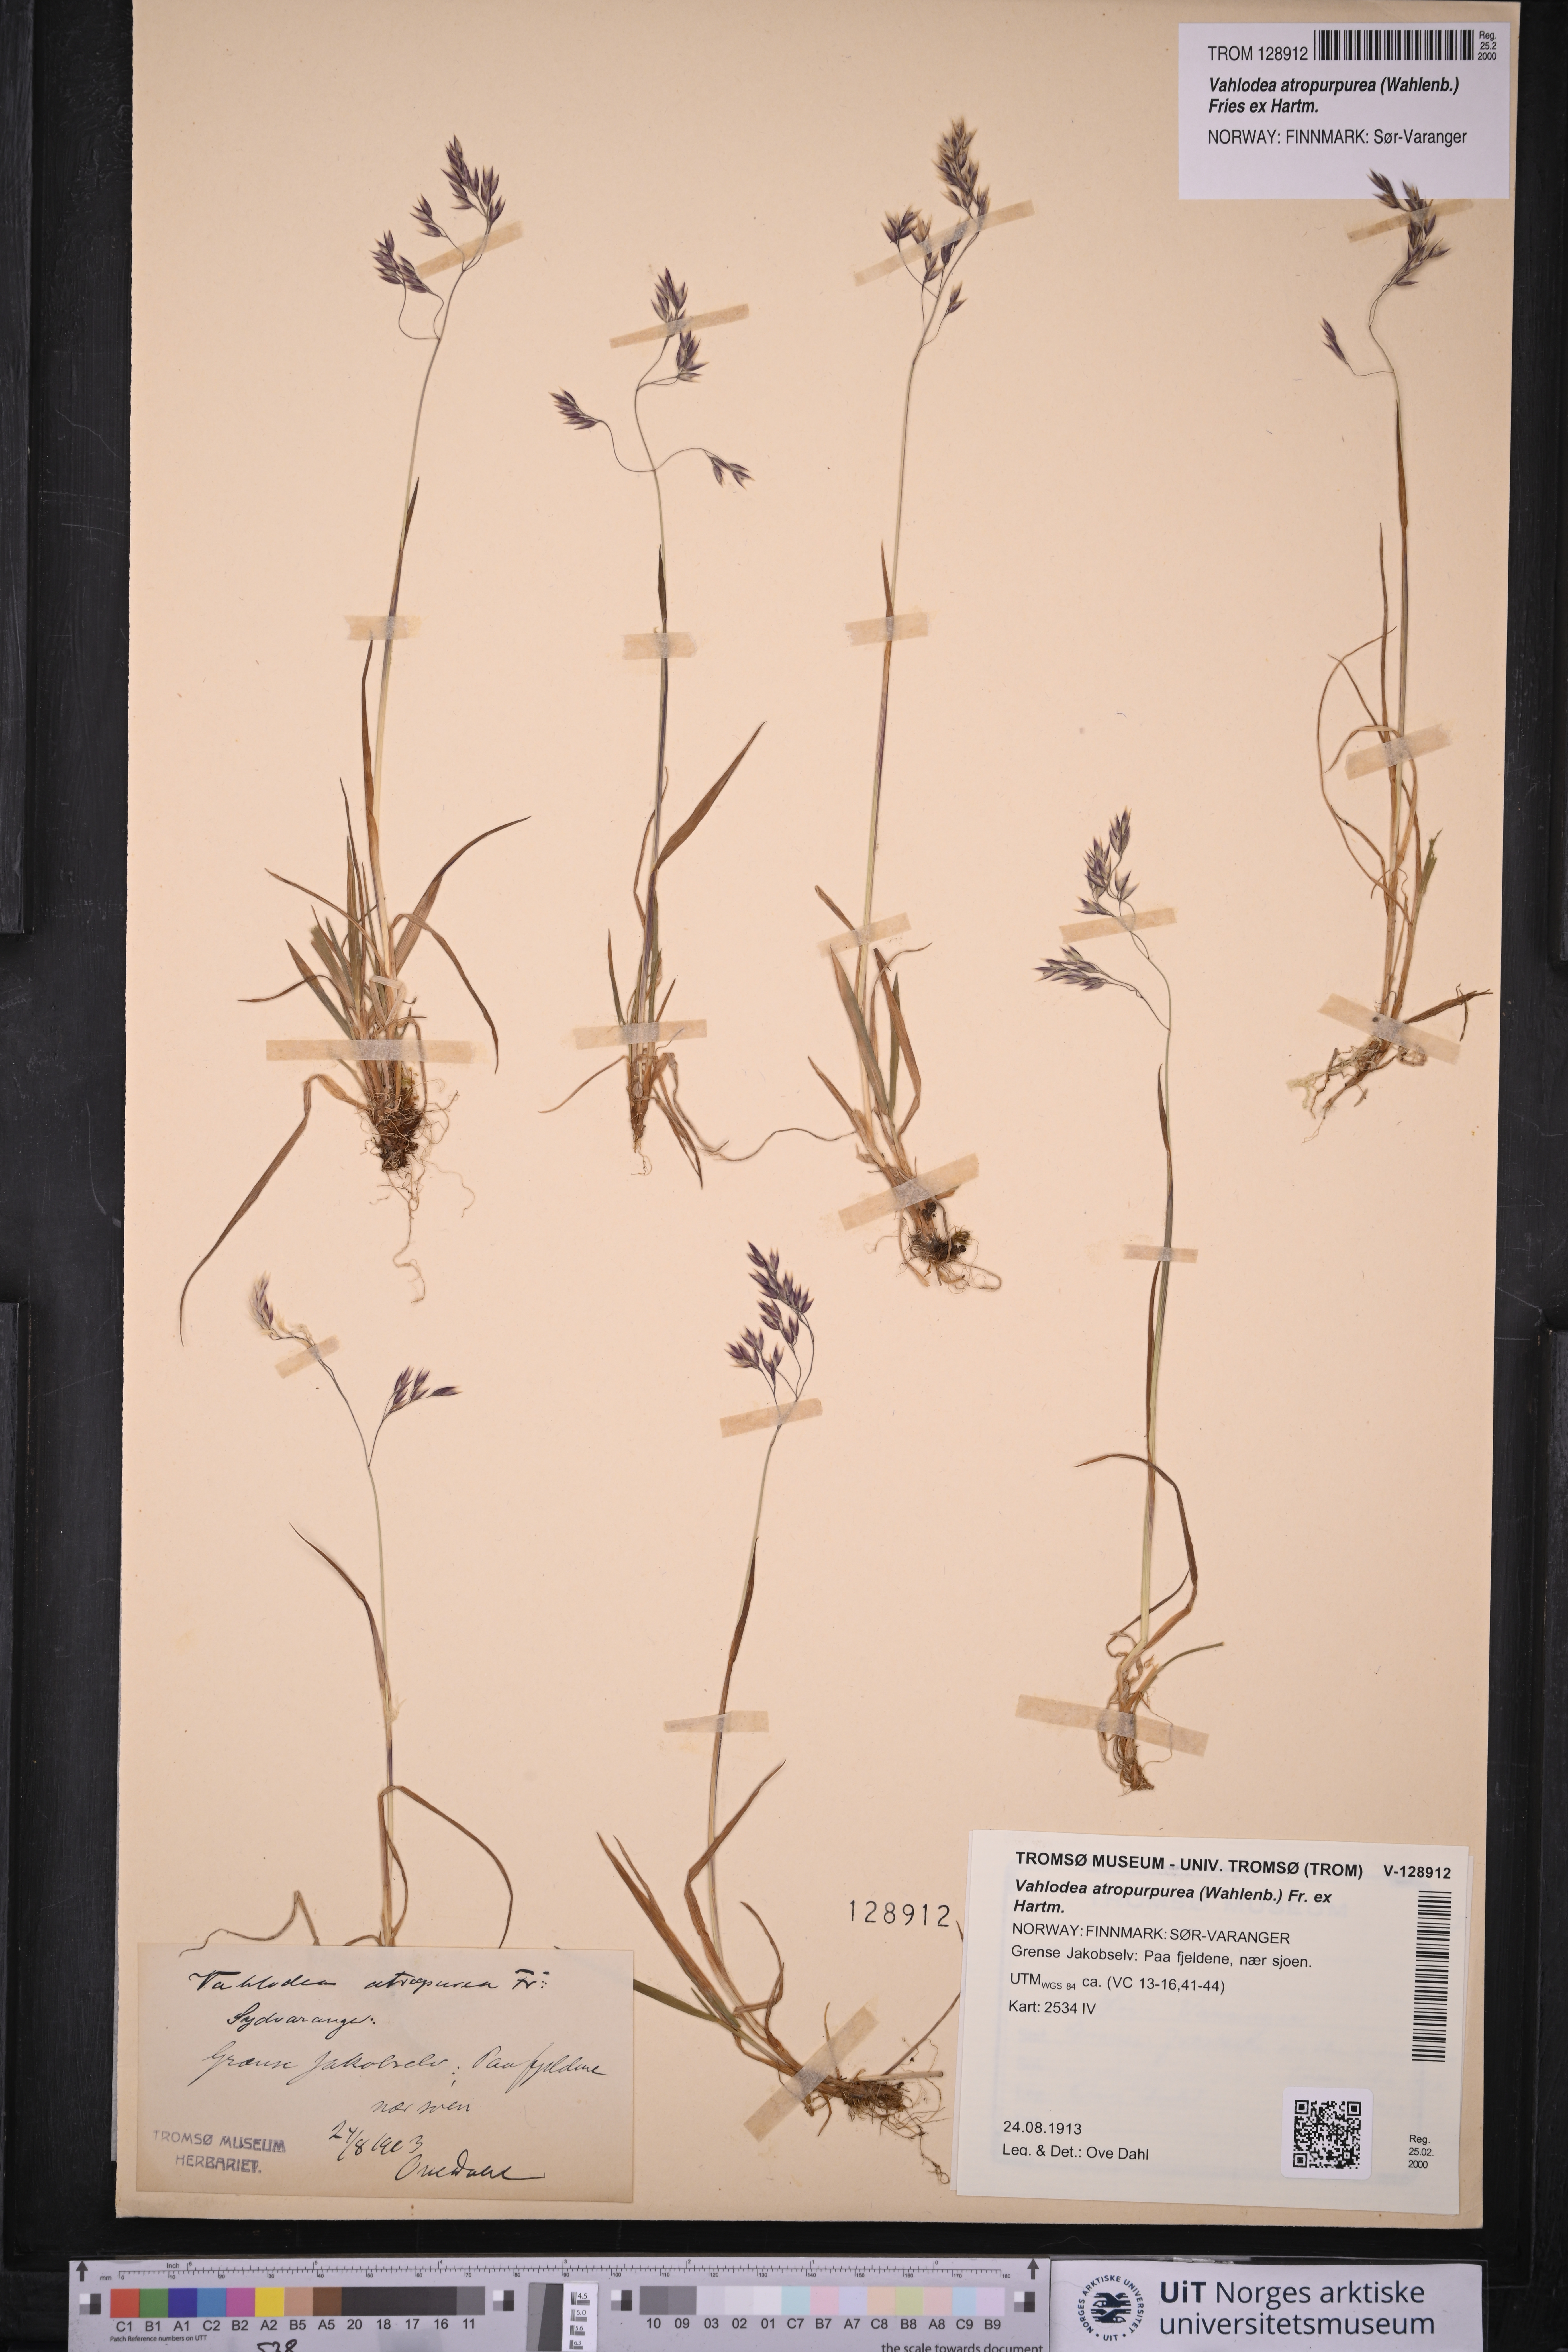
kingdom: Plantae
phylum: Tracheophyta
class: Liliopsida
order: Poales
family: Poaceae
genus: Vahlodea
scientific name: Vahlodea atropurpurea
